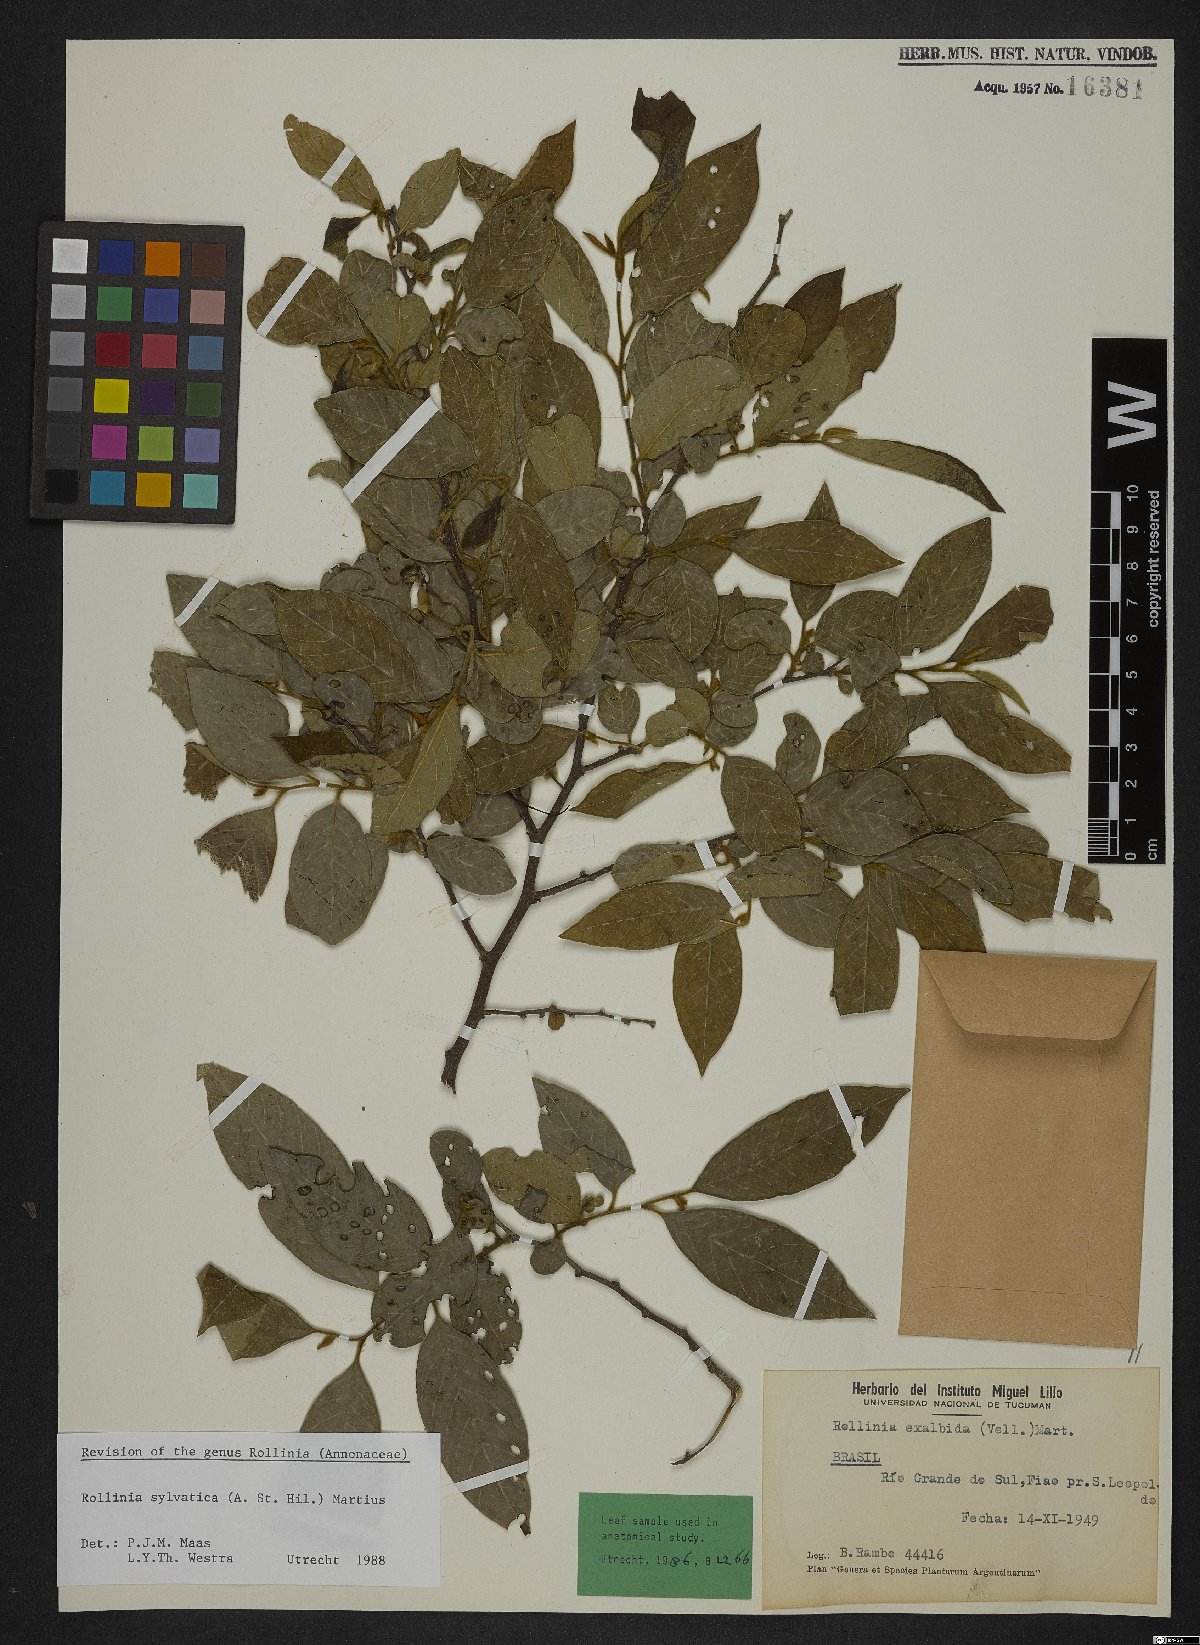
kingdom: Plantae
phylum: Tracheophyta
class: Magnoliopsida
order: Magnoliales
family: Annonaceae
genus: Annona
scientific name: Annona sylvatica
